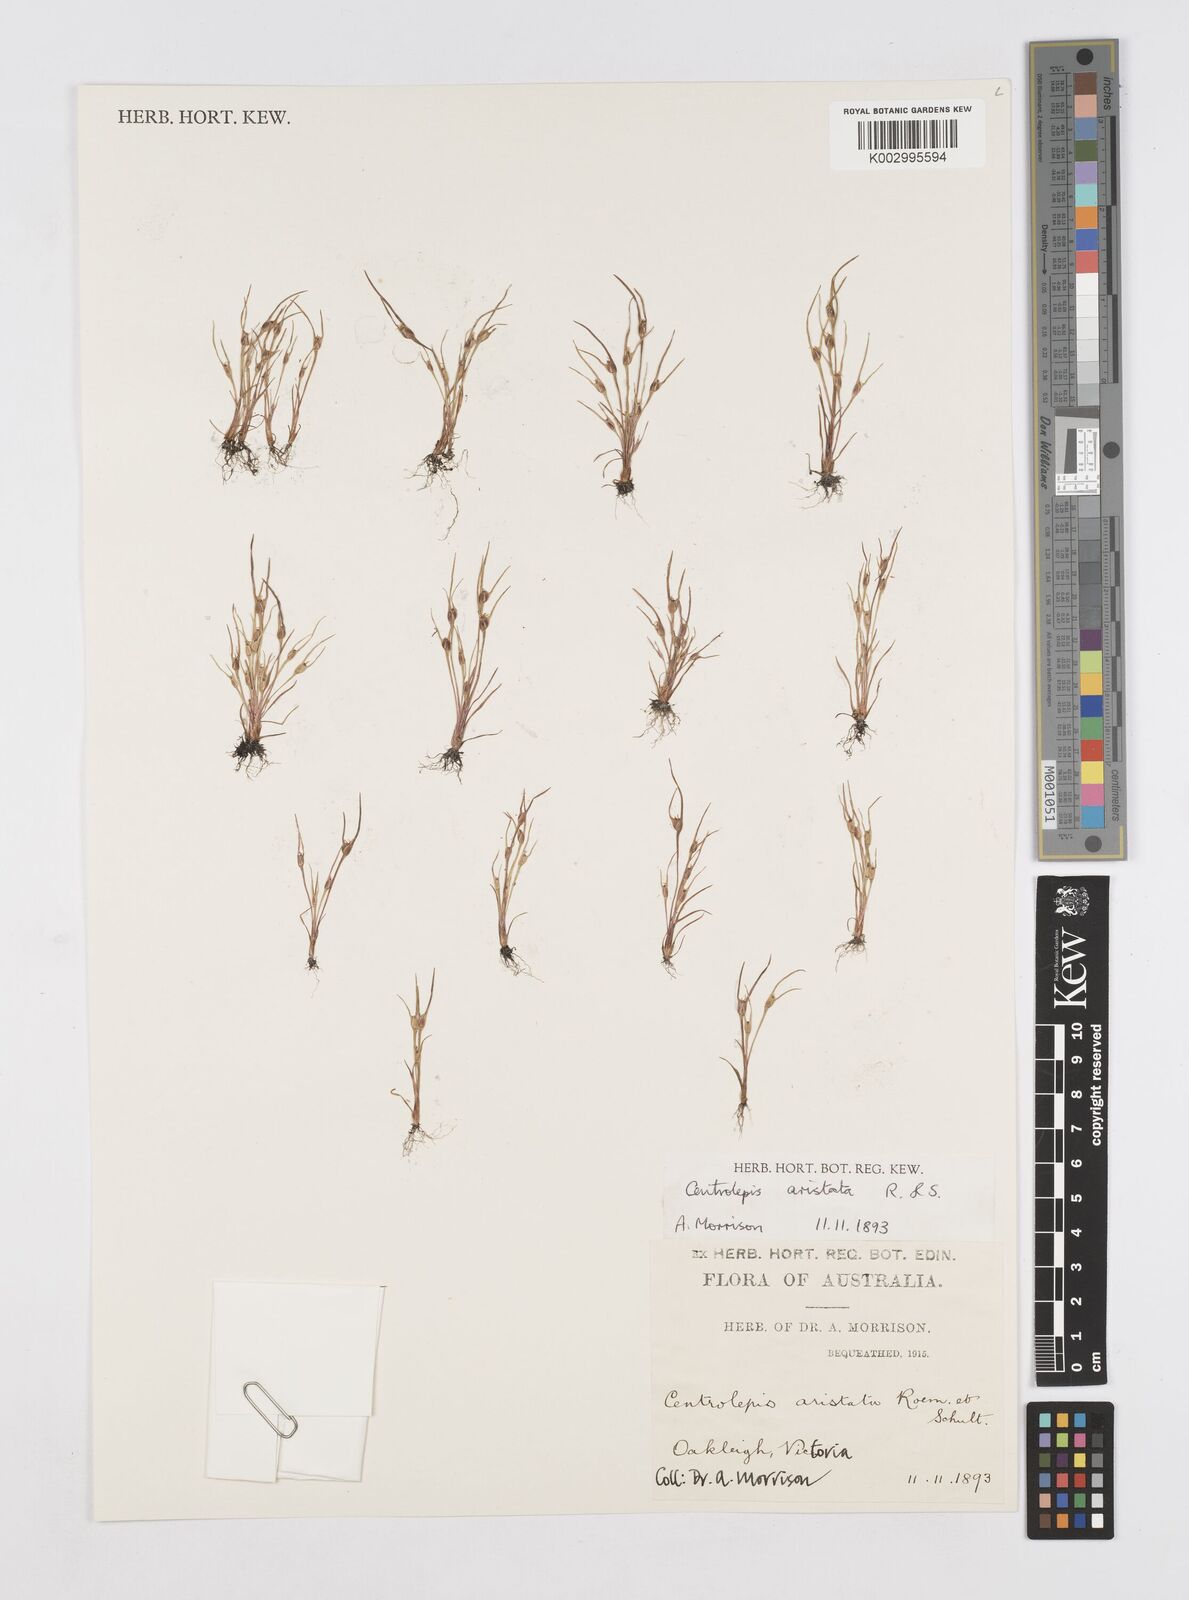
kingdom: Plantae
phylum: Tracheophyta
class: Liliopsida
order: Poales
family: Restionaceae
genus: Centrolepis
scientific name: Centrolepis aristata
